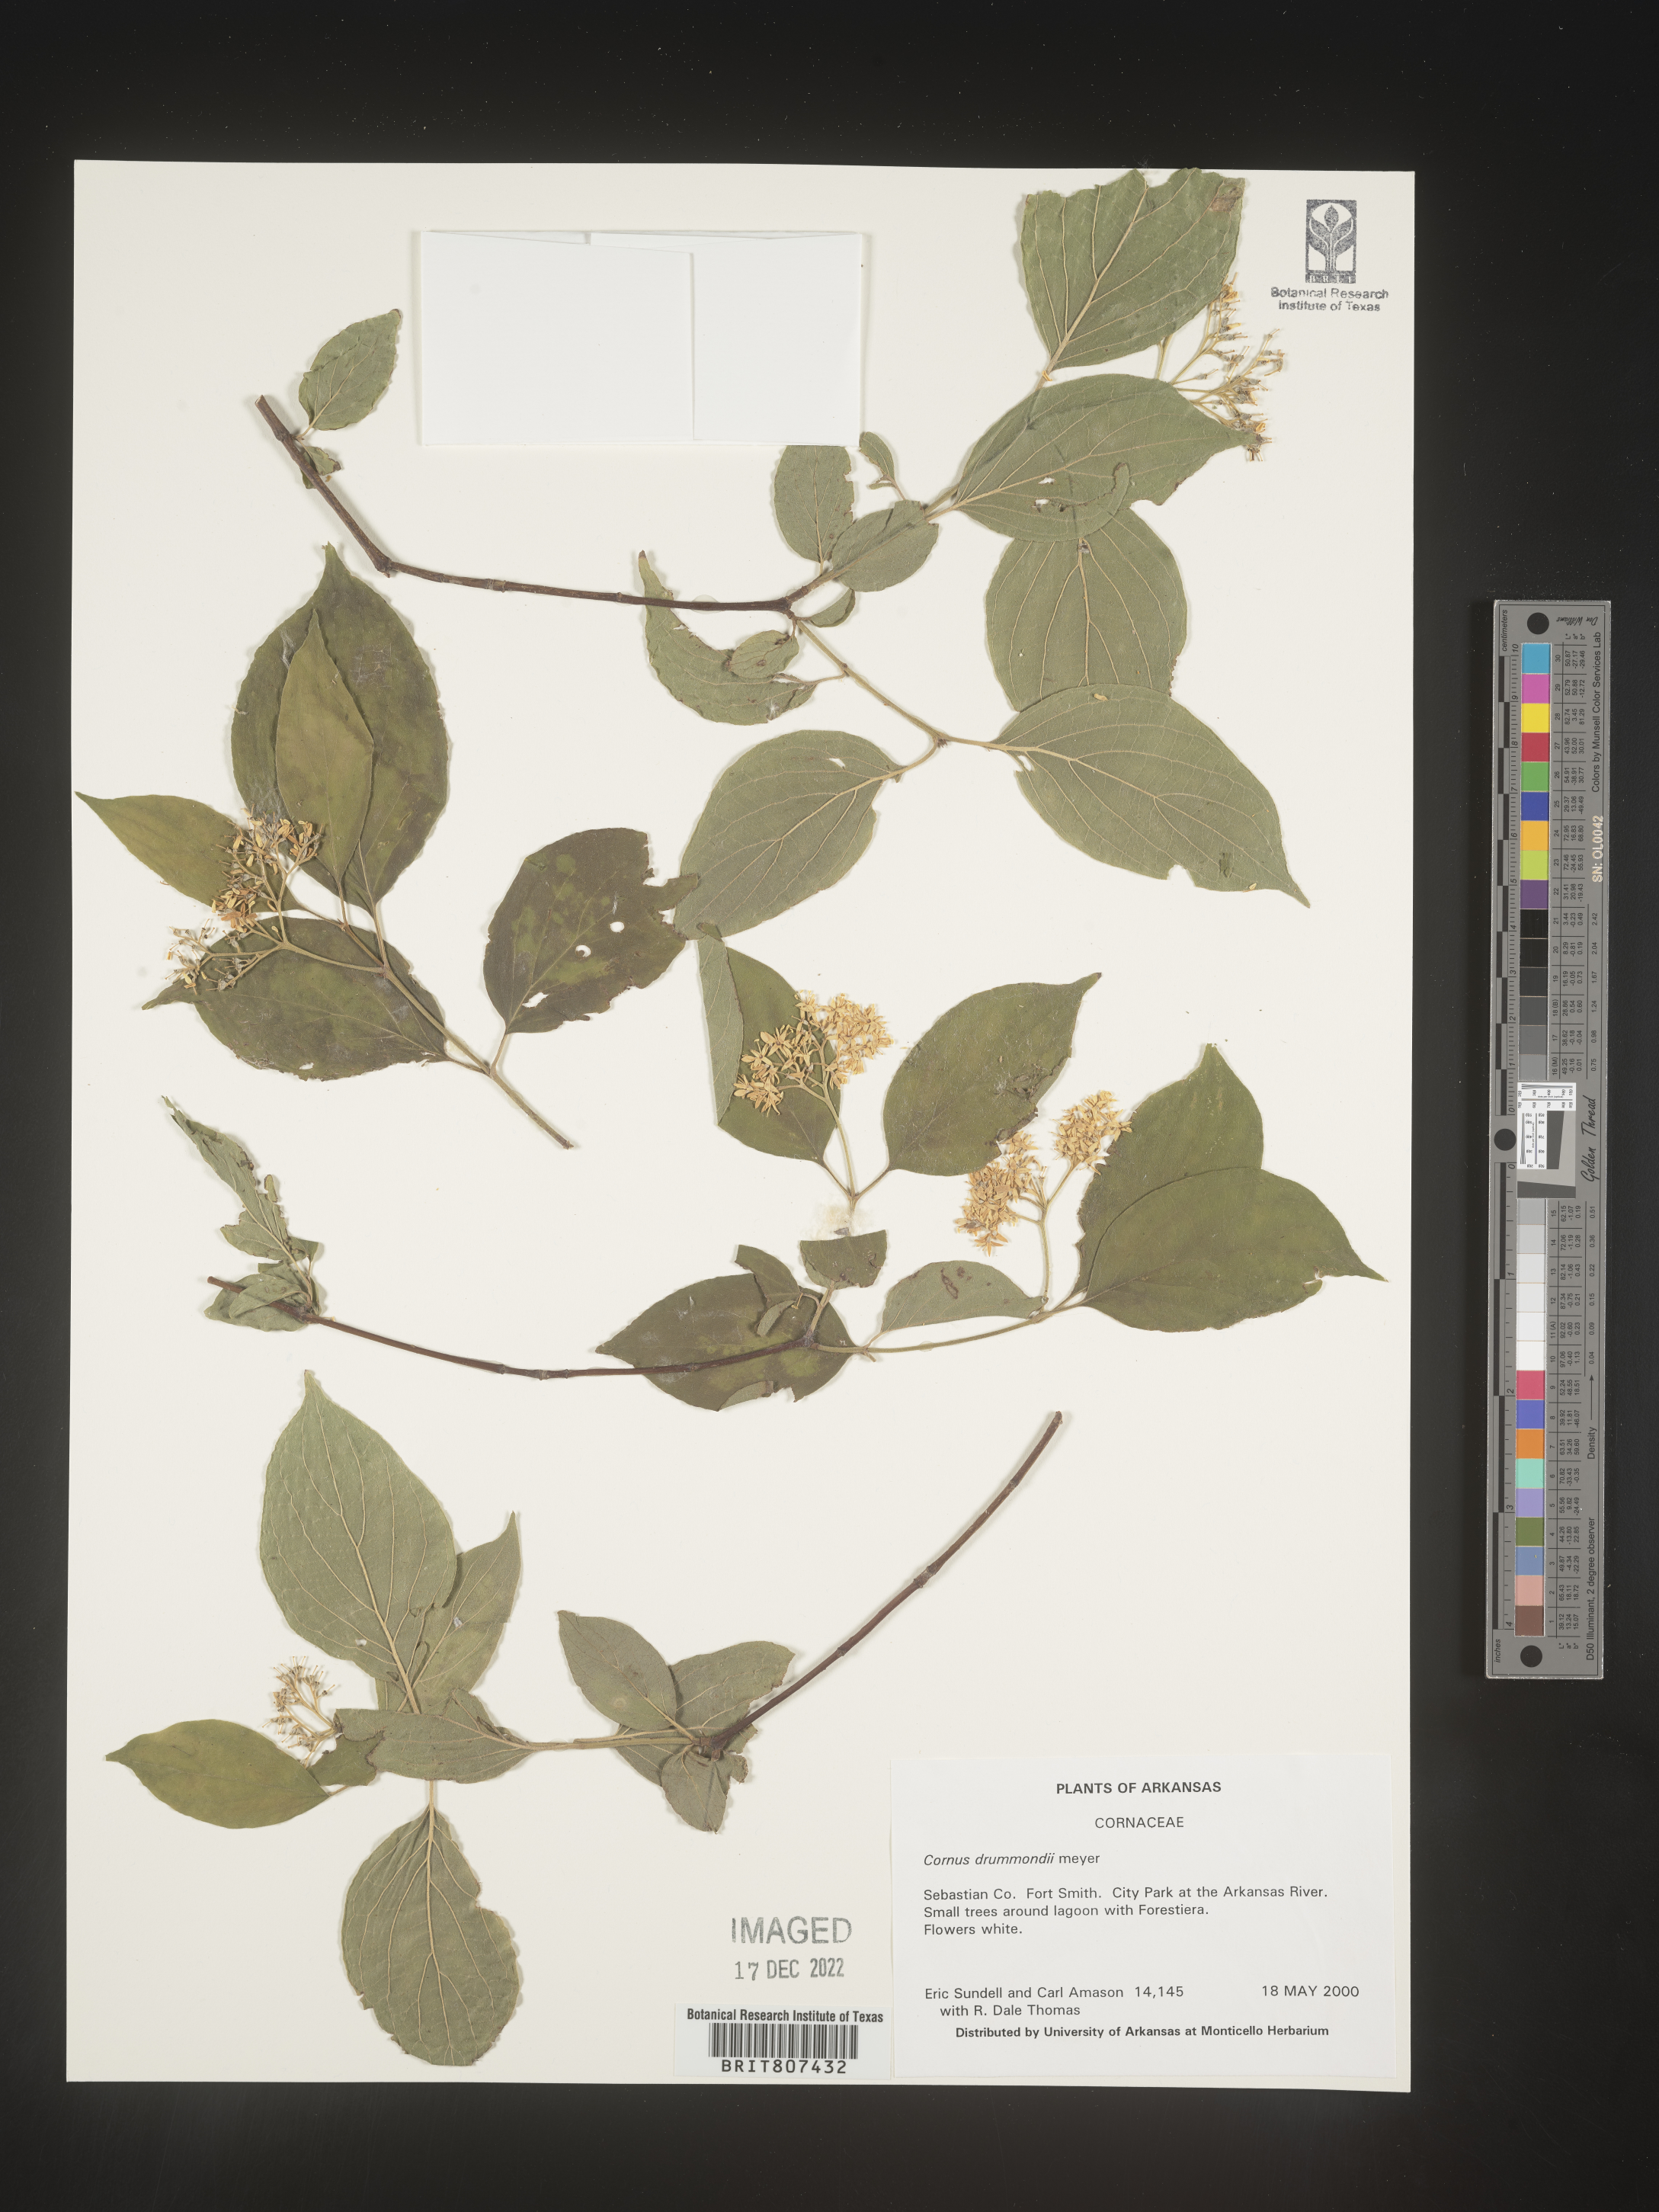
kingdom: Plantae
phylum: Tracheophyta
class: Magnoliopsida
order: Cornales
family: Cornaceae
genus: Cornus
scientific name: Cornus drummondii
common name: Rough-leaf dogwood
